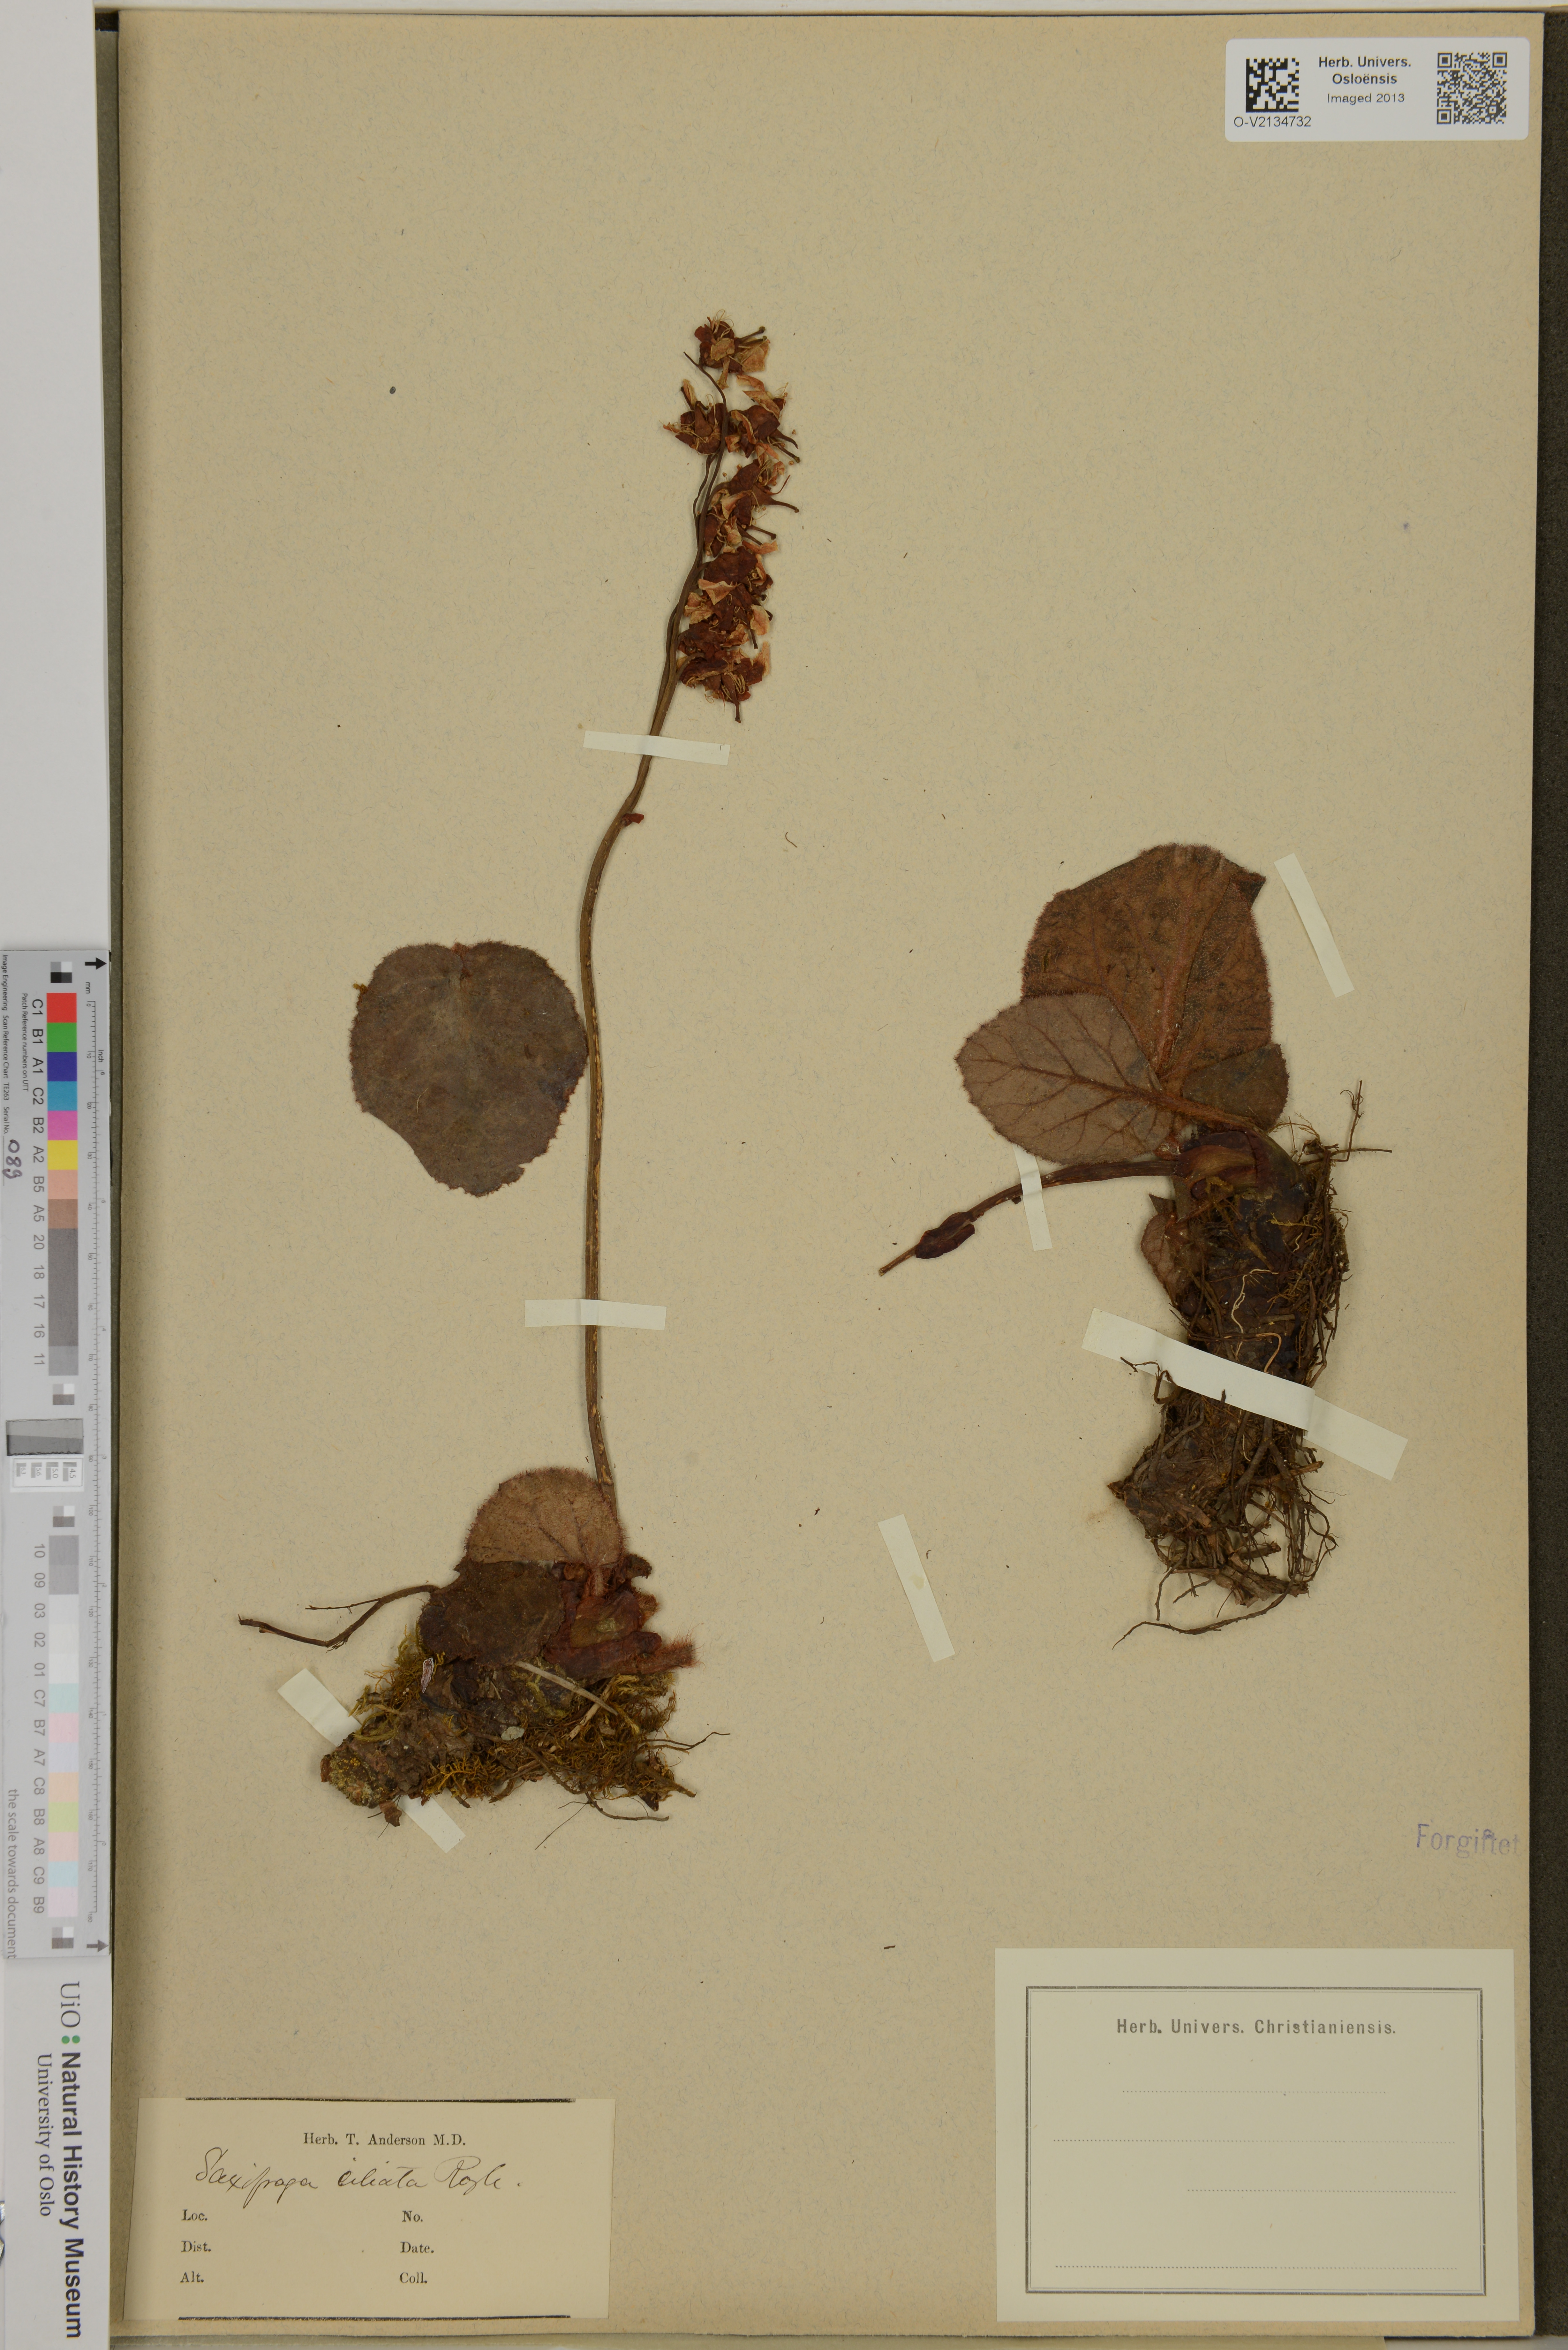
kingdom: Plantae
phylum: Tracheophyta
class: Magnoliopsida
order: Saxifragales
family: Saxifragaceae
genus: Saxifraga
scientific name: Saxifraga pulvinaria
